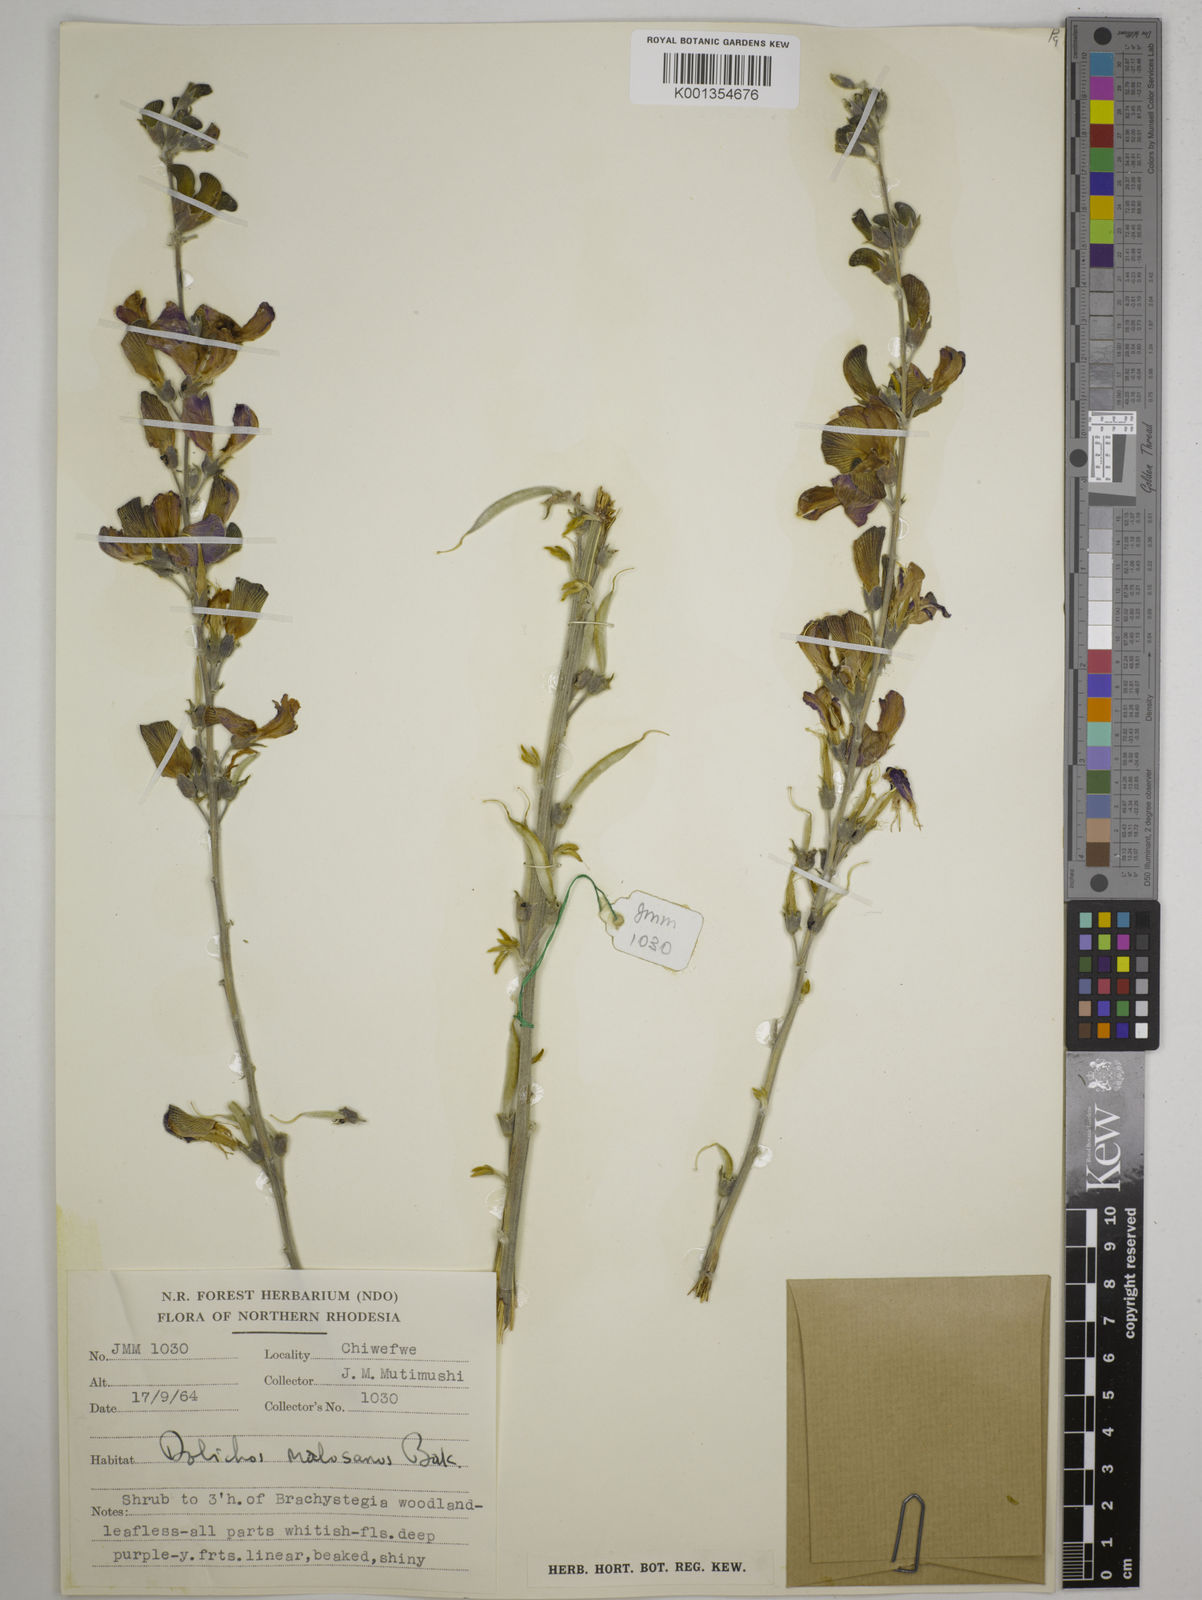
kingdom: Plantae
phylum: Tracheophyta
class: Magnoliopsida
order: Fabales
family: Fabaceae
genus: Dolichos
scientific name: Dolichos kilimandscharicus
